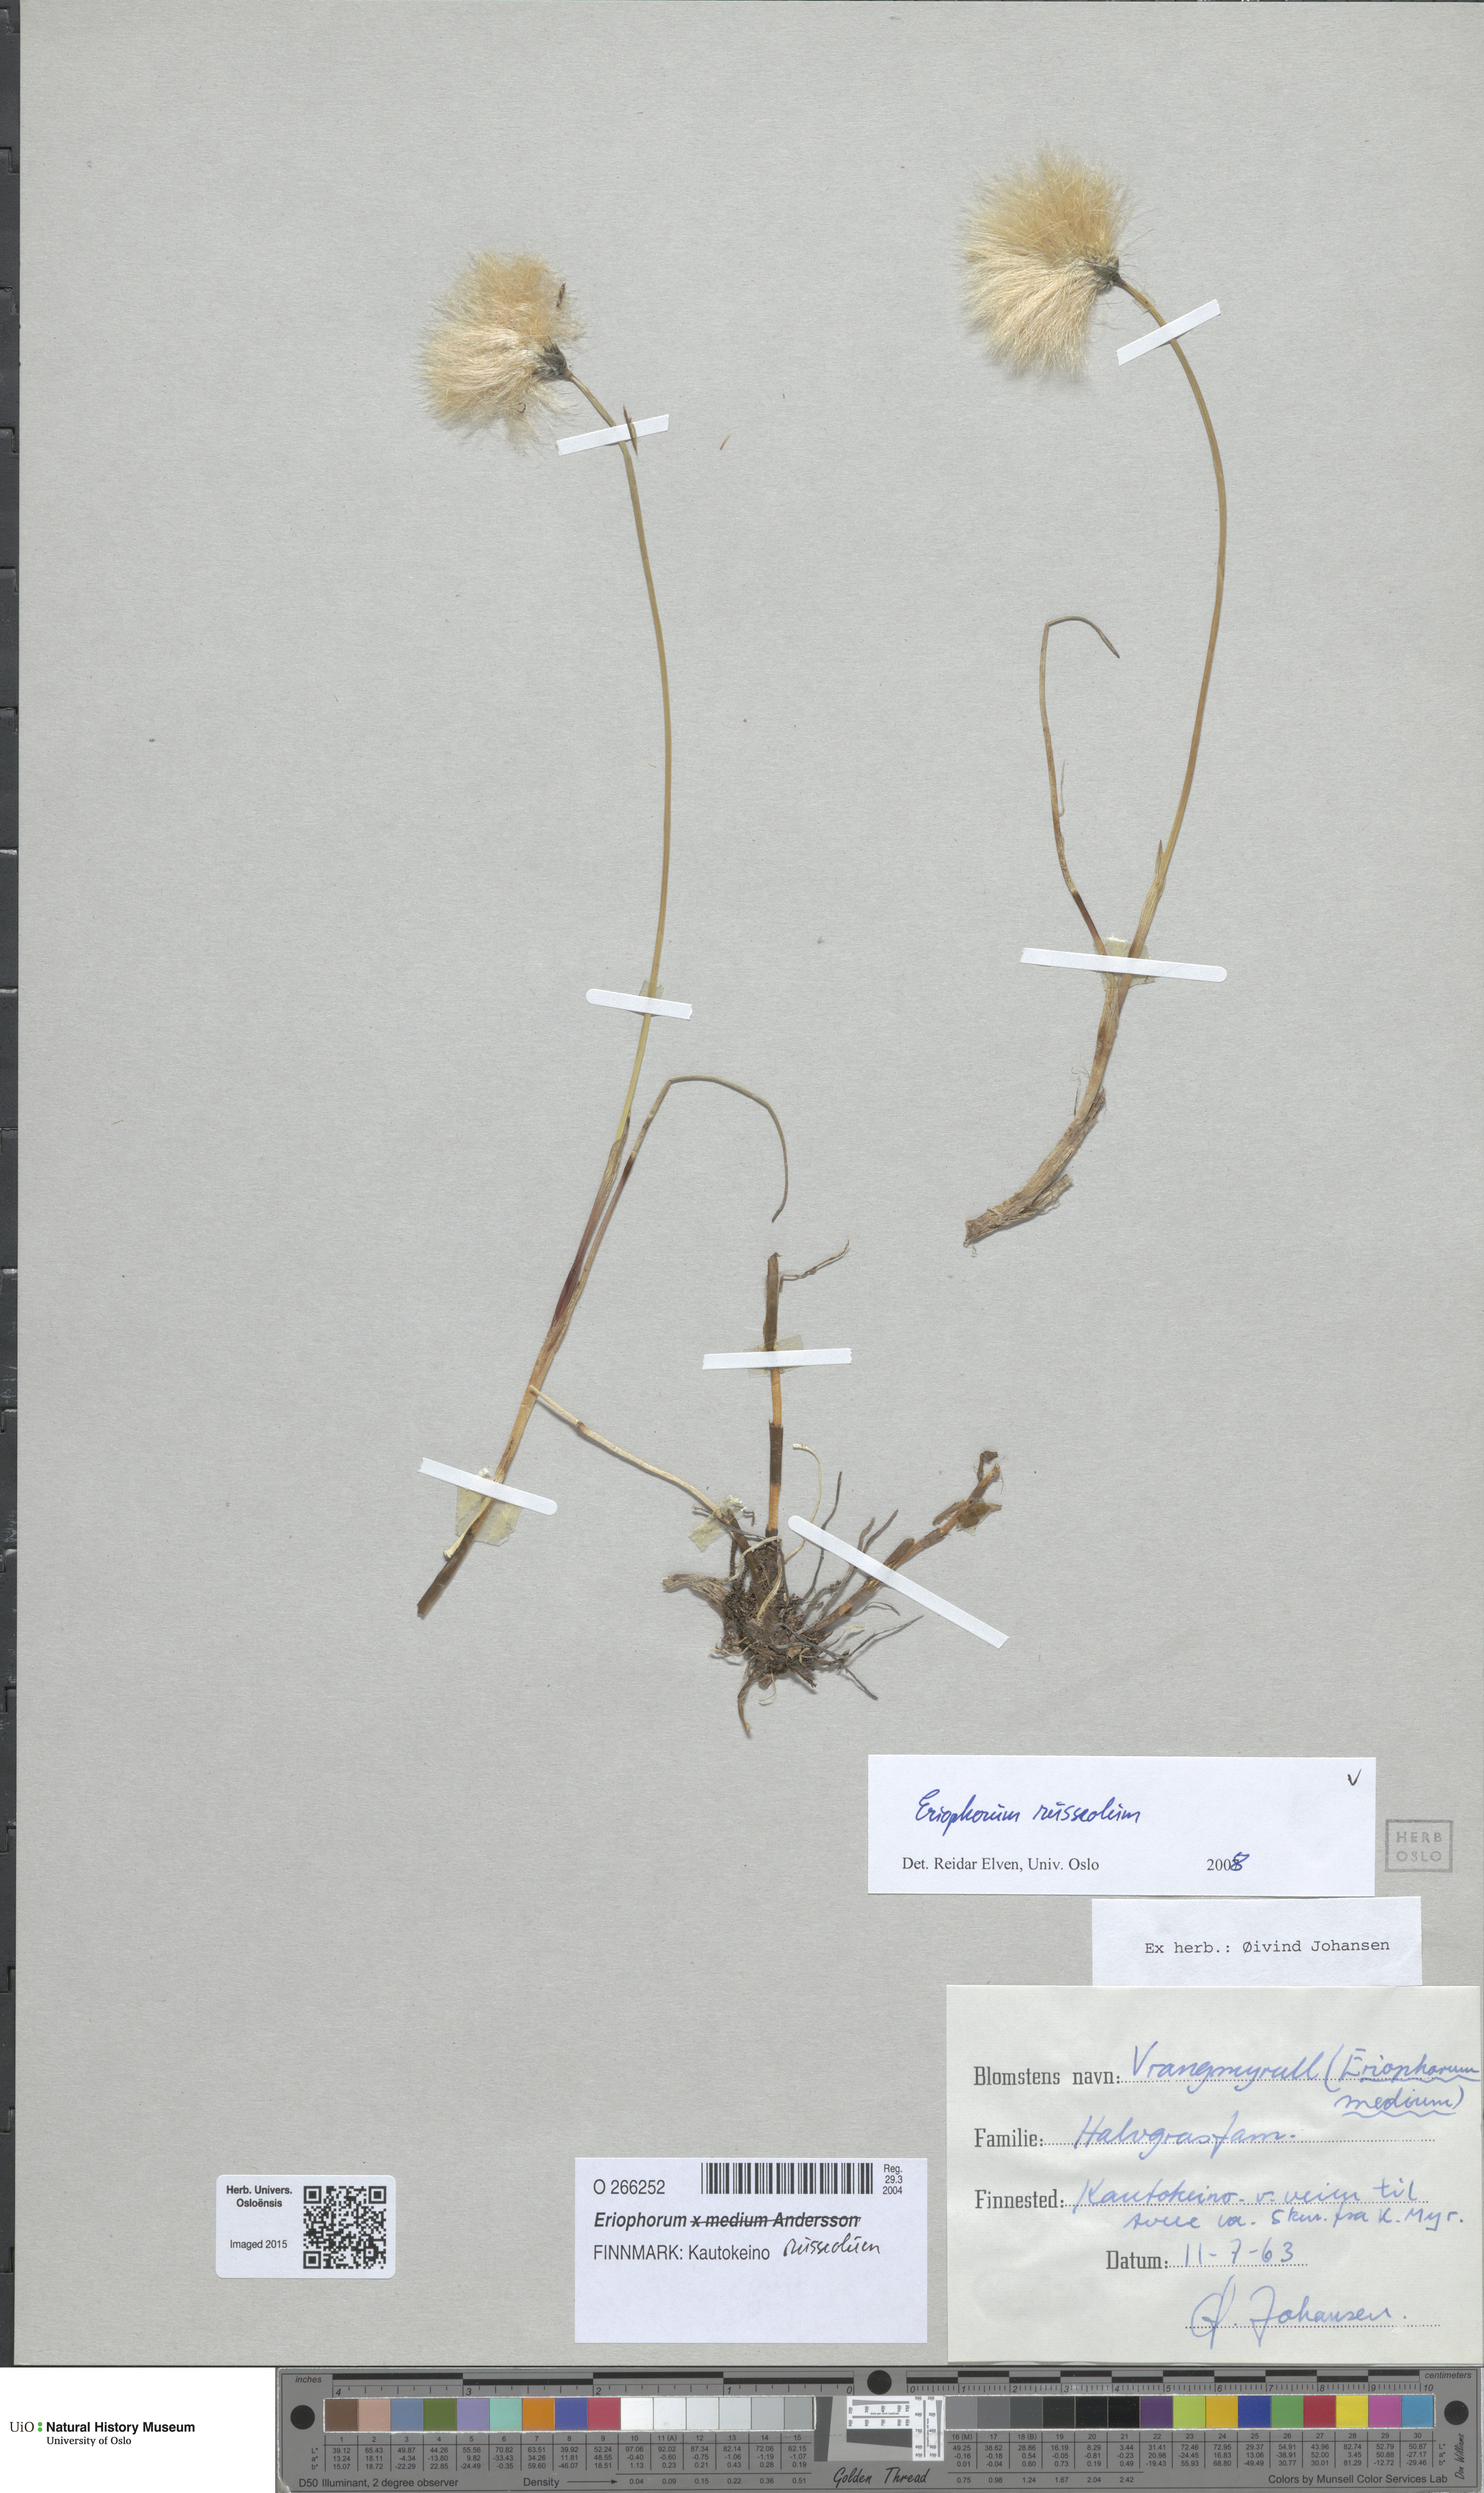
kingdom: Plantae
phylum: Tracheophyta
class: Liliopsida
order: Poales
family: Cyperaceae
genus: Eriophorum
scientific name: Eriophorum russeolum
